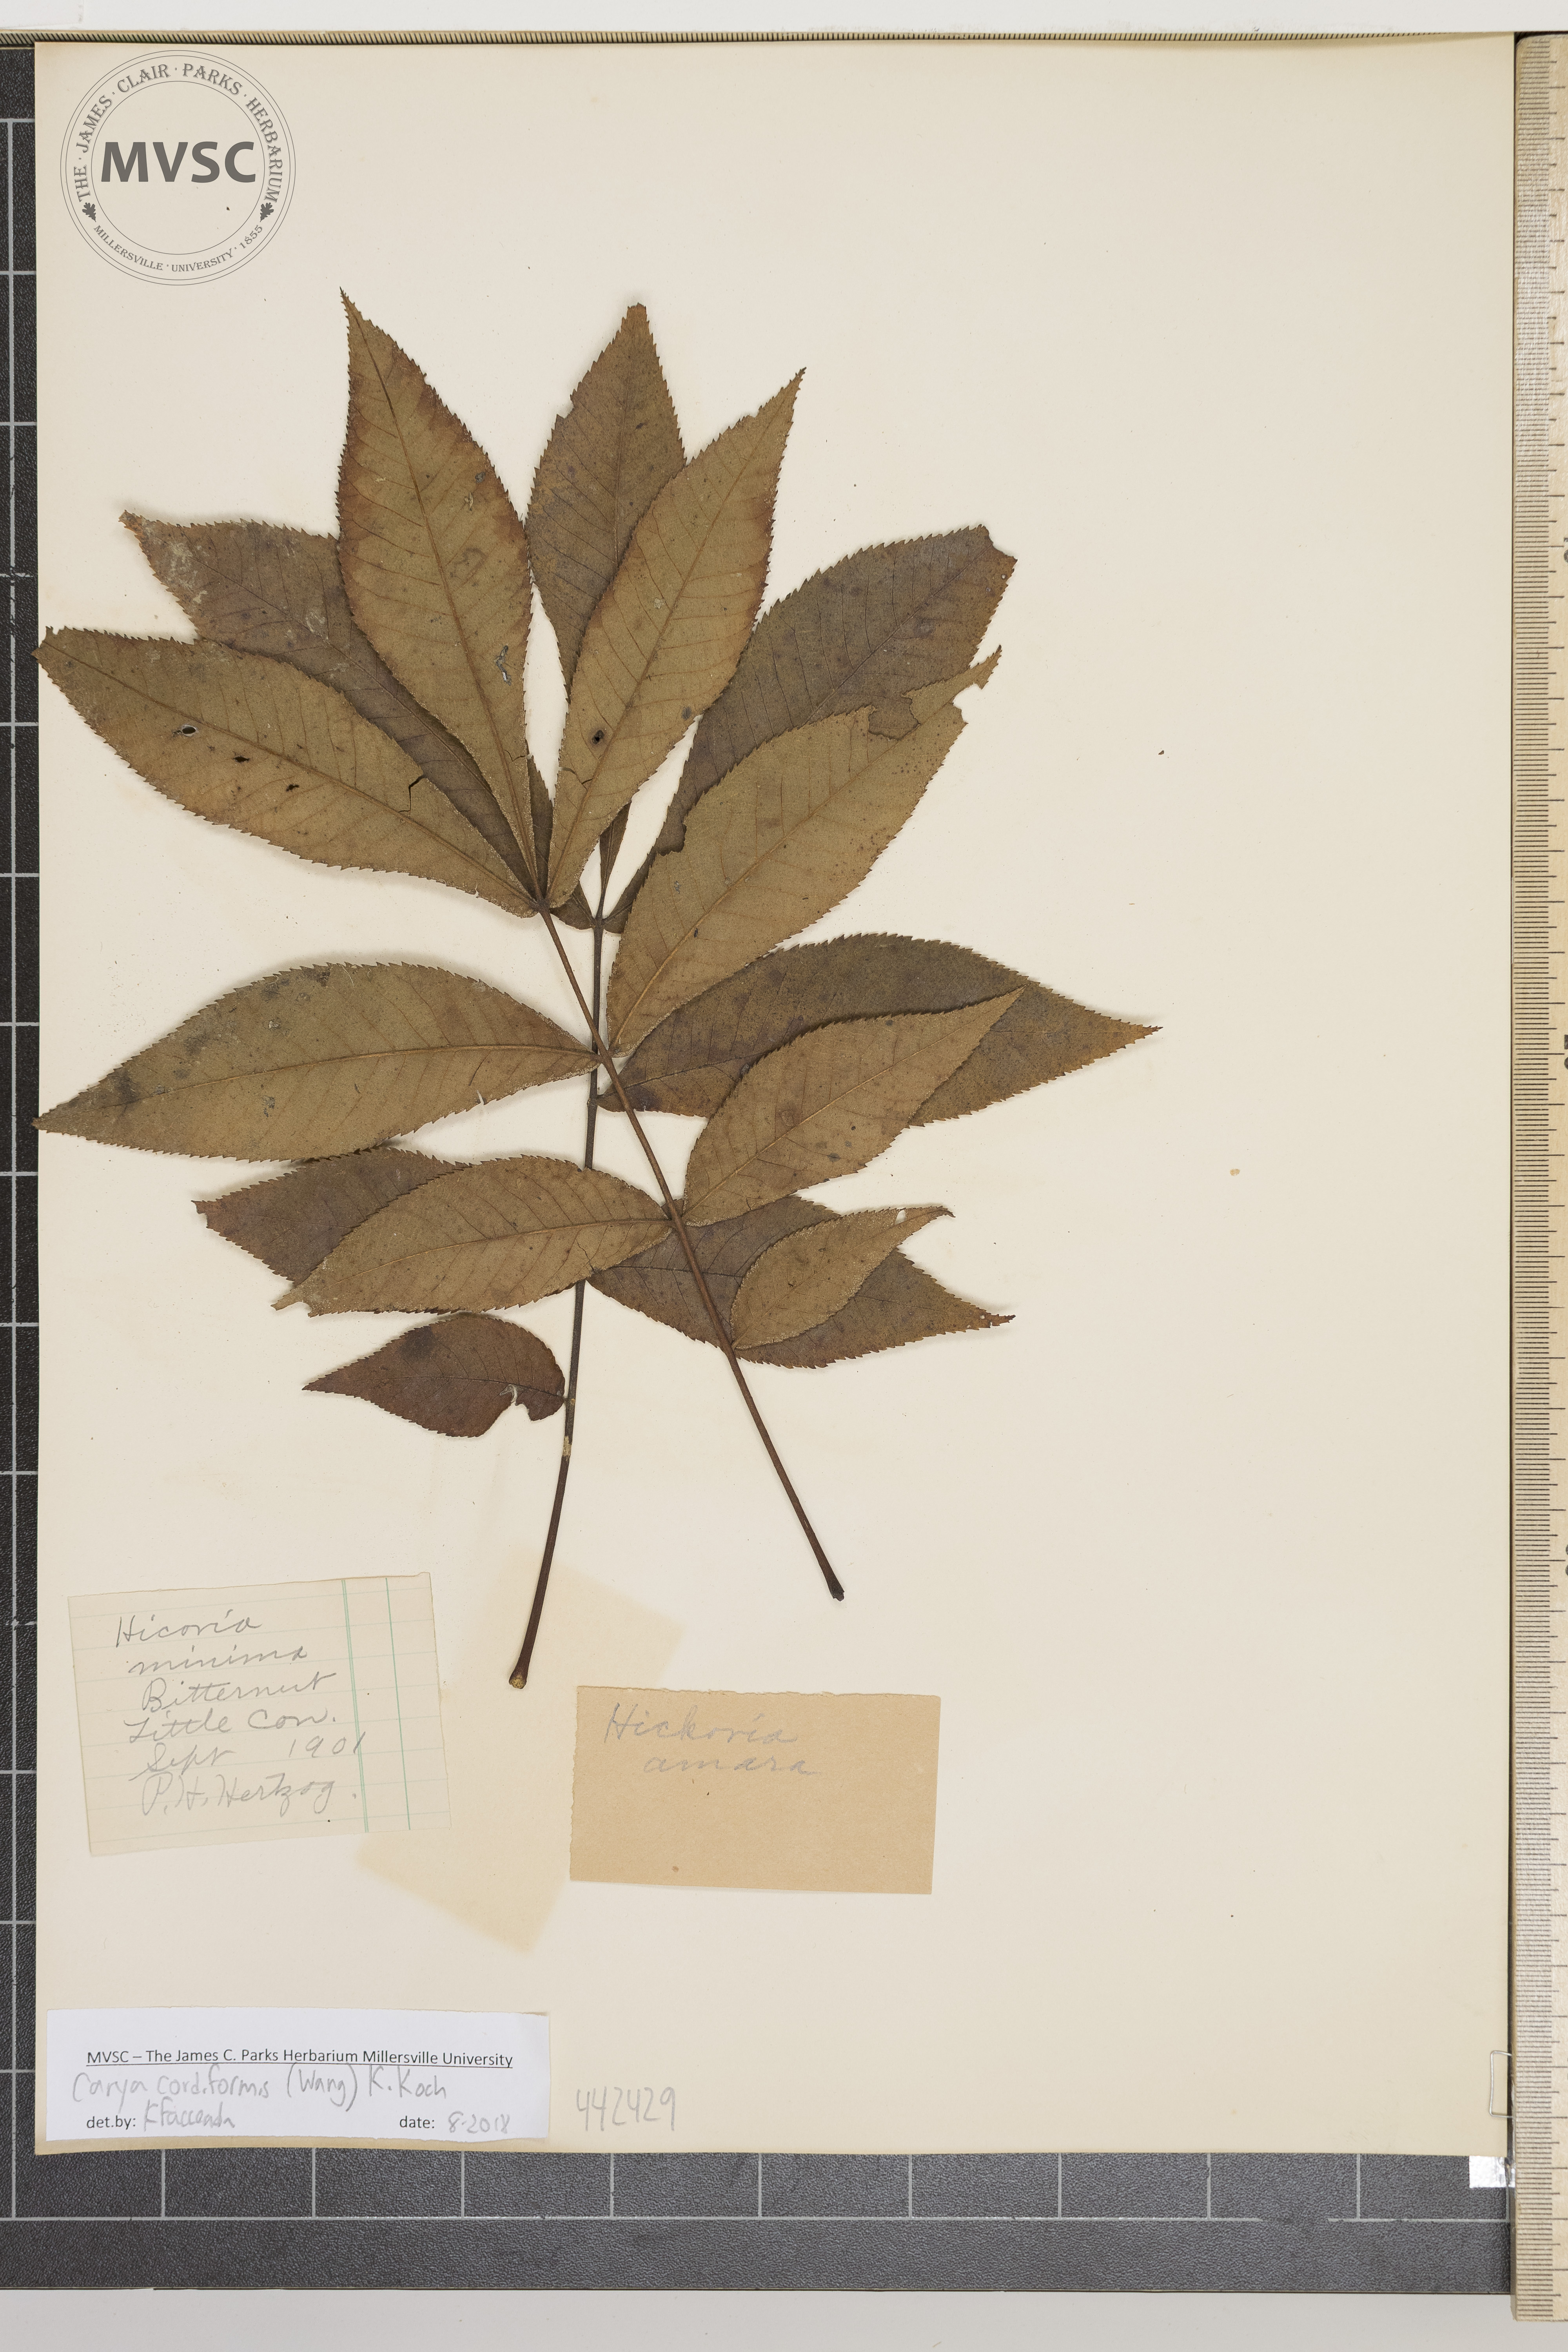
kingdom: Plantae
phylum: Tracheophyta
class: Magnoliopsida
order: Fagales
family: Juglandaceae
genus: Carya
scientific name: Carya cordiformis
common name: Bitternut hickory
